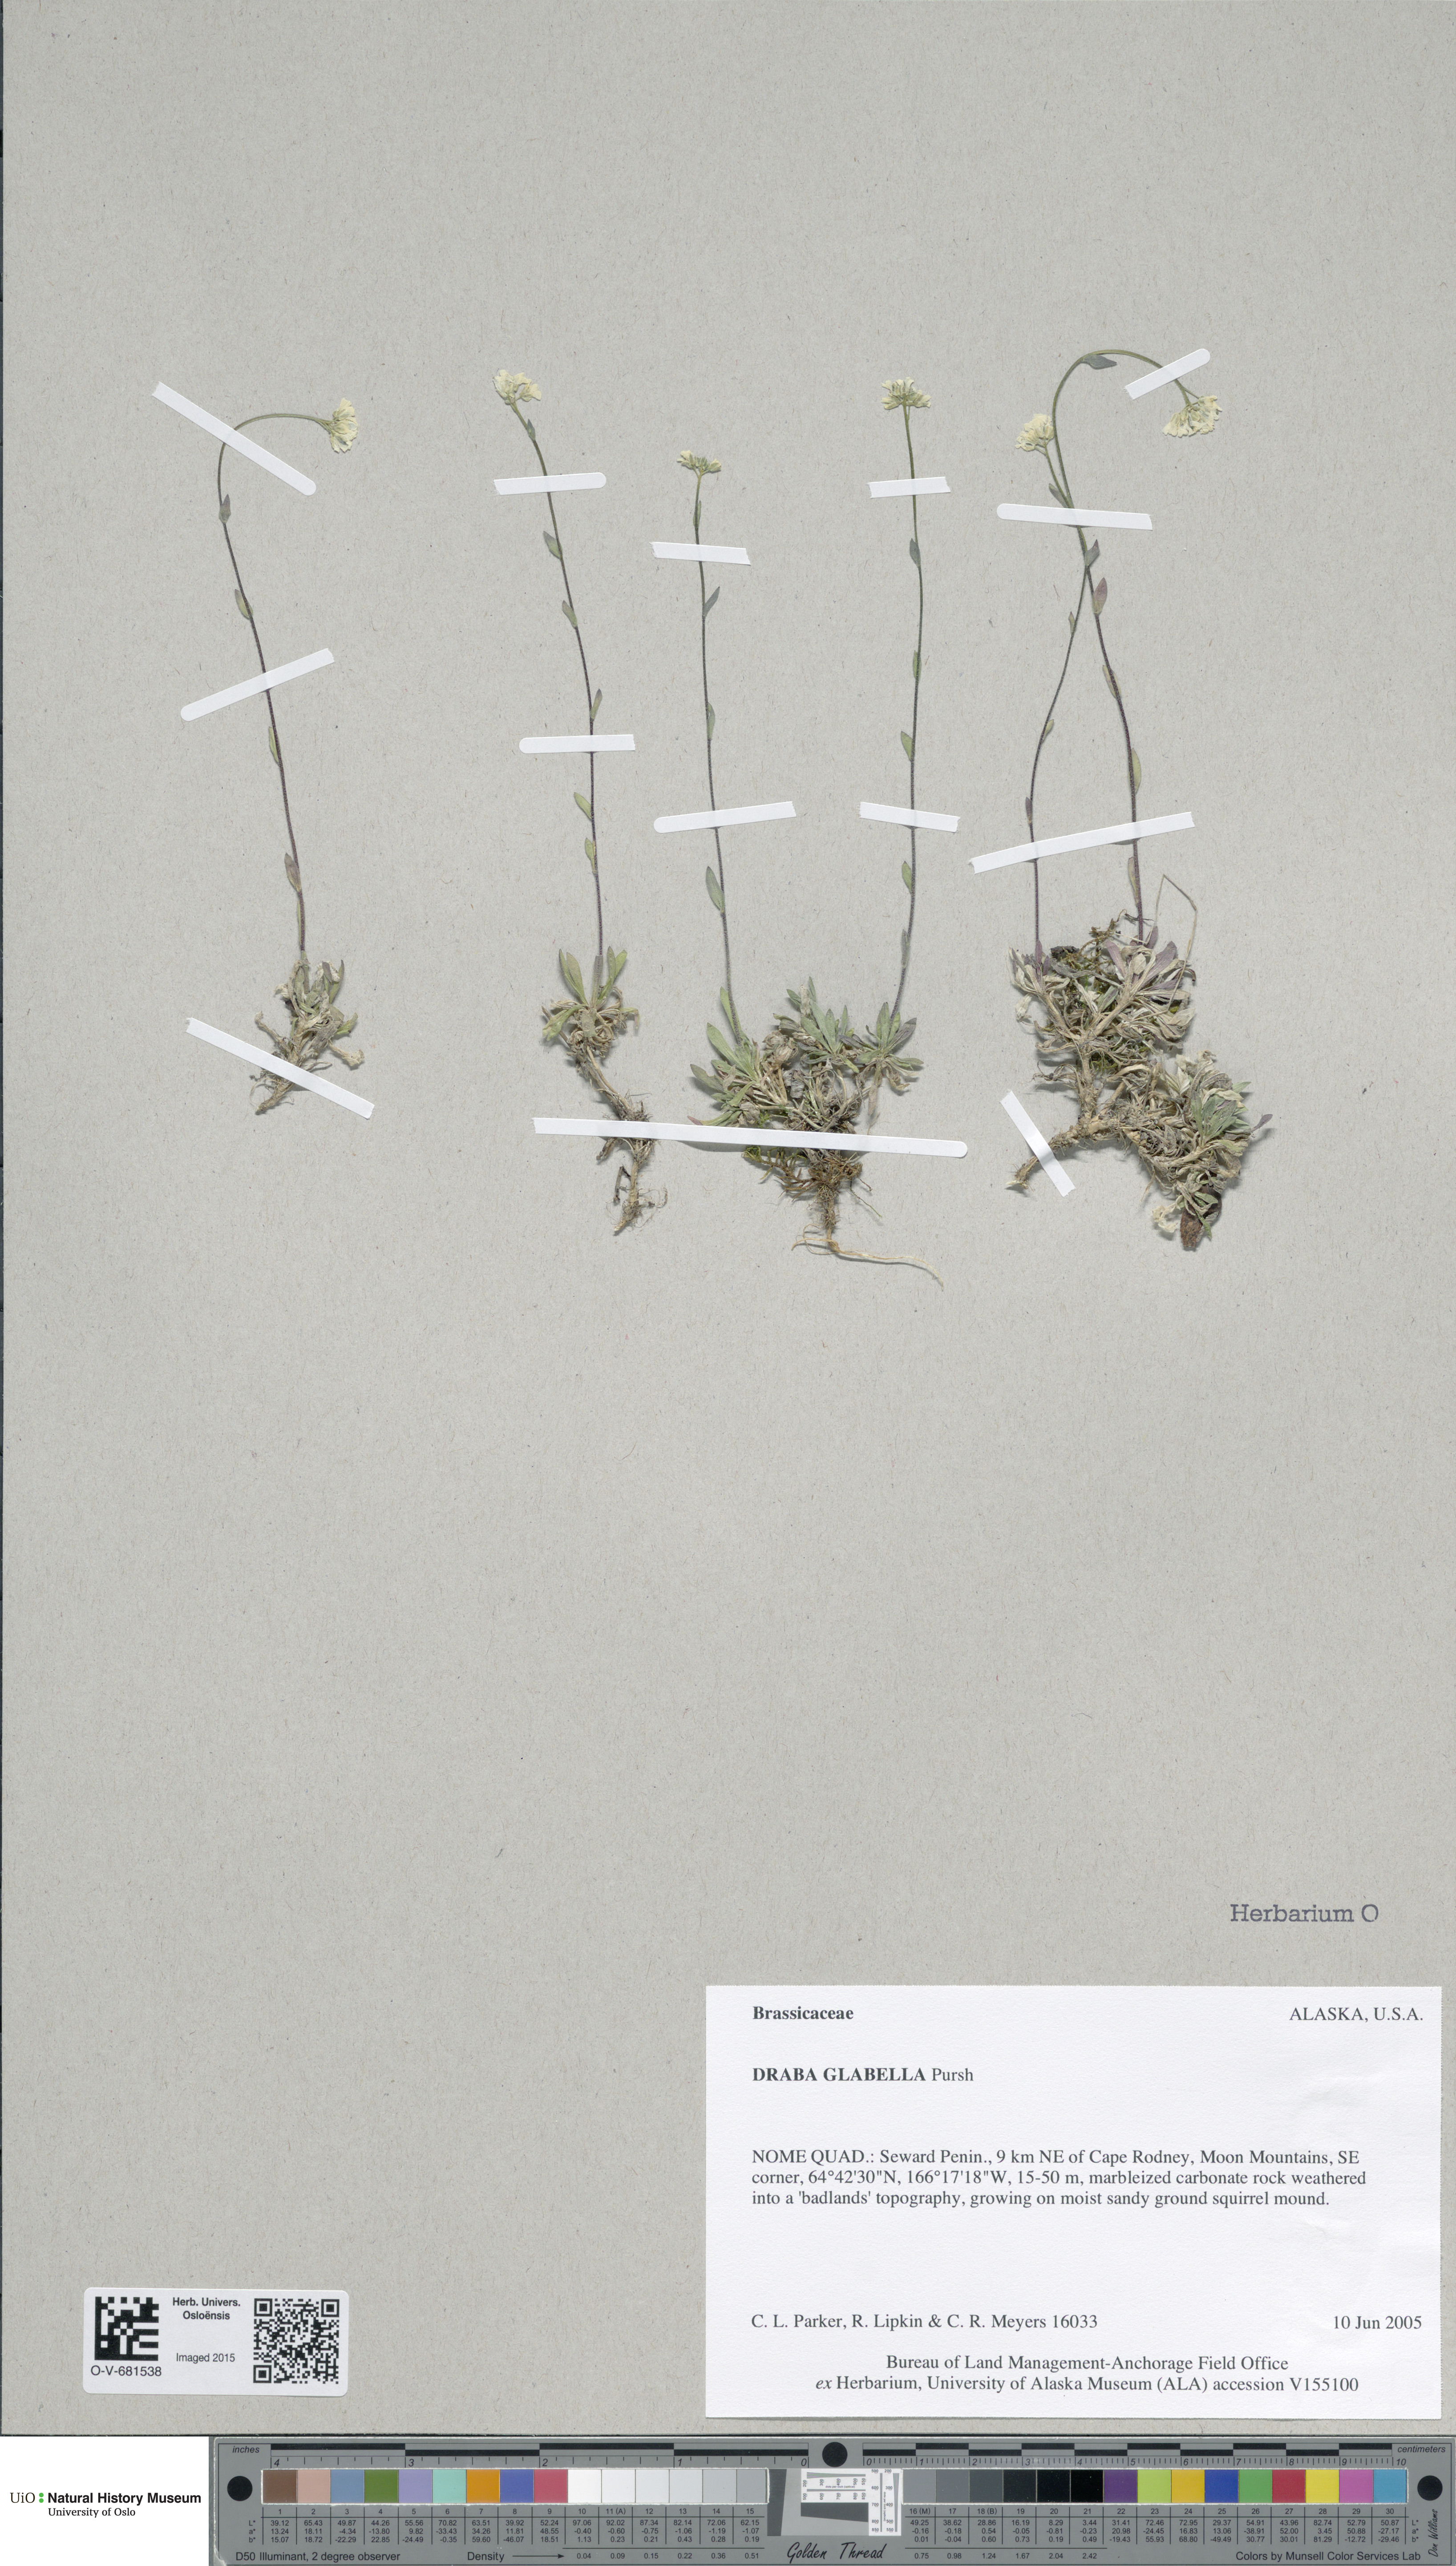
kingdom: Plantae
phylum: Tracheophyta
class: Magnoliopsida
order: Brassicales
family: Brassicaceae
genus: Draba
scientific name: Draba glabella
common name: Glaucous draba
